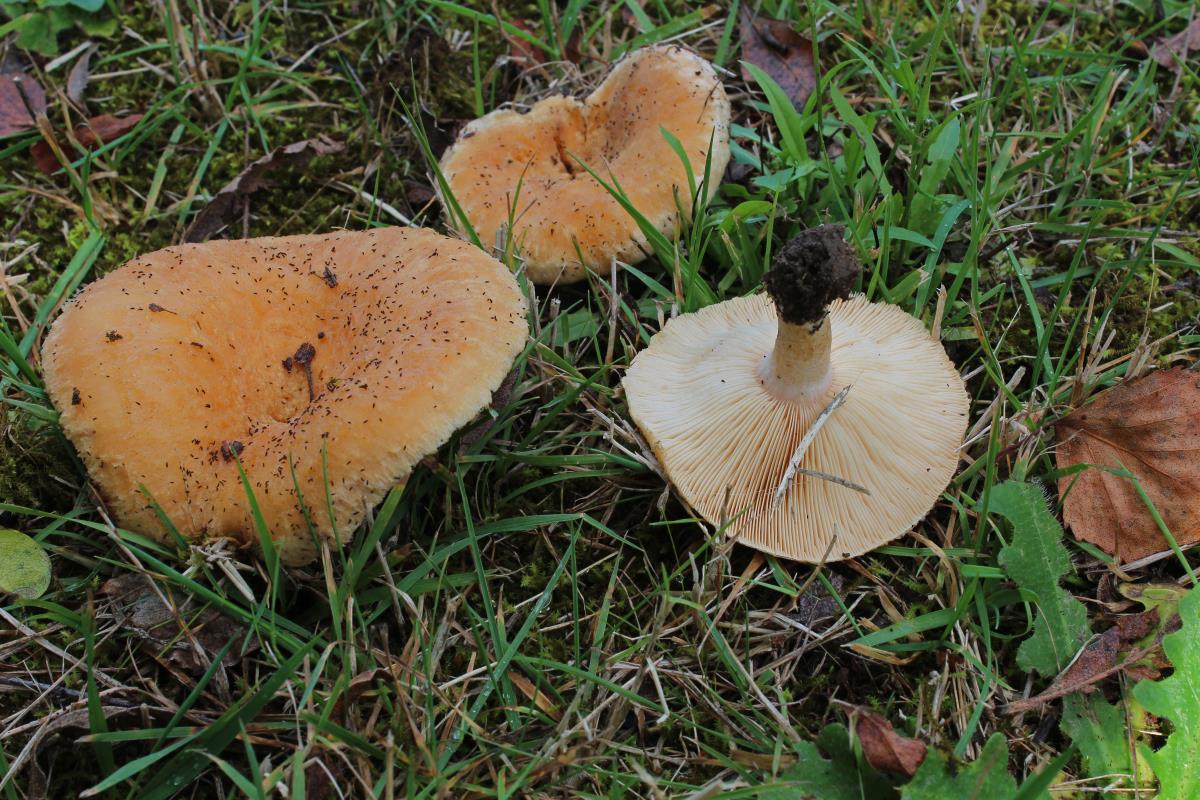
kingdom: Fungi
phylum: Basidiomycota
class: Agaricomycetes
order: Russulales
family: Russulaceae
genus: Lactarius
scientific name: Lactarius pubescens
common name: Bearded milkcap
